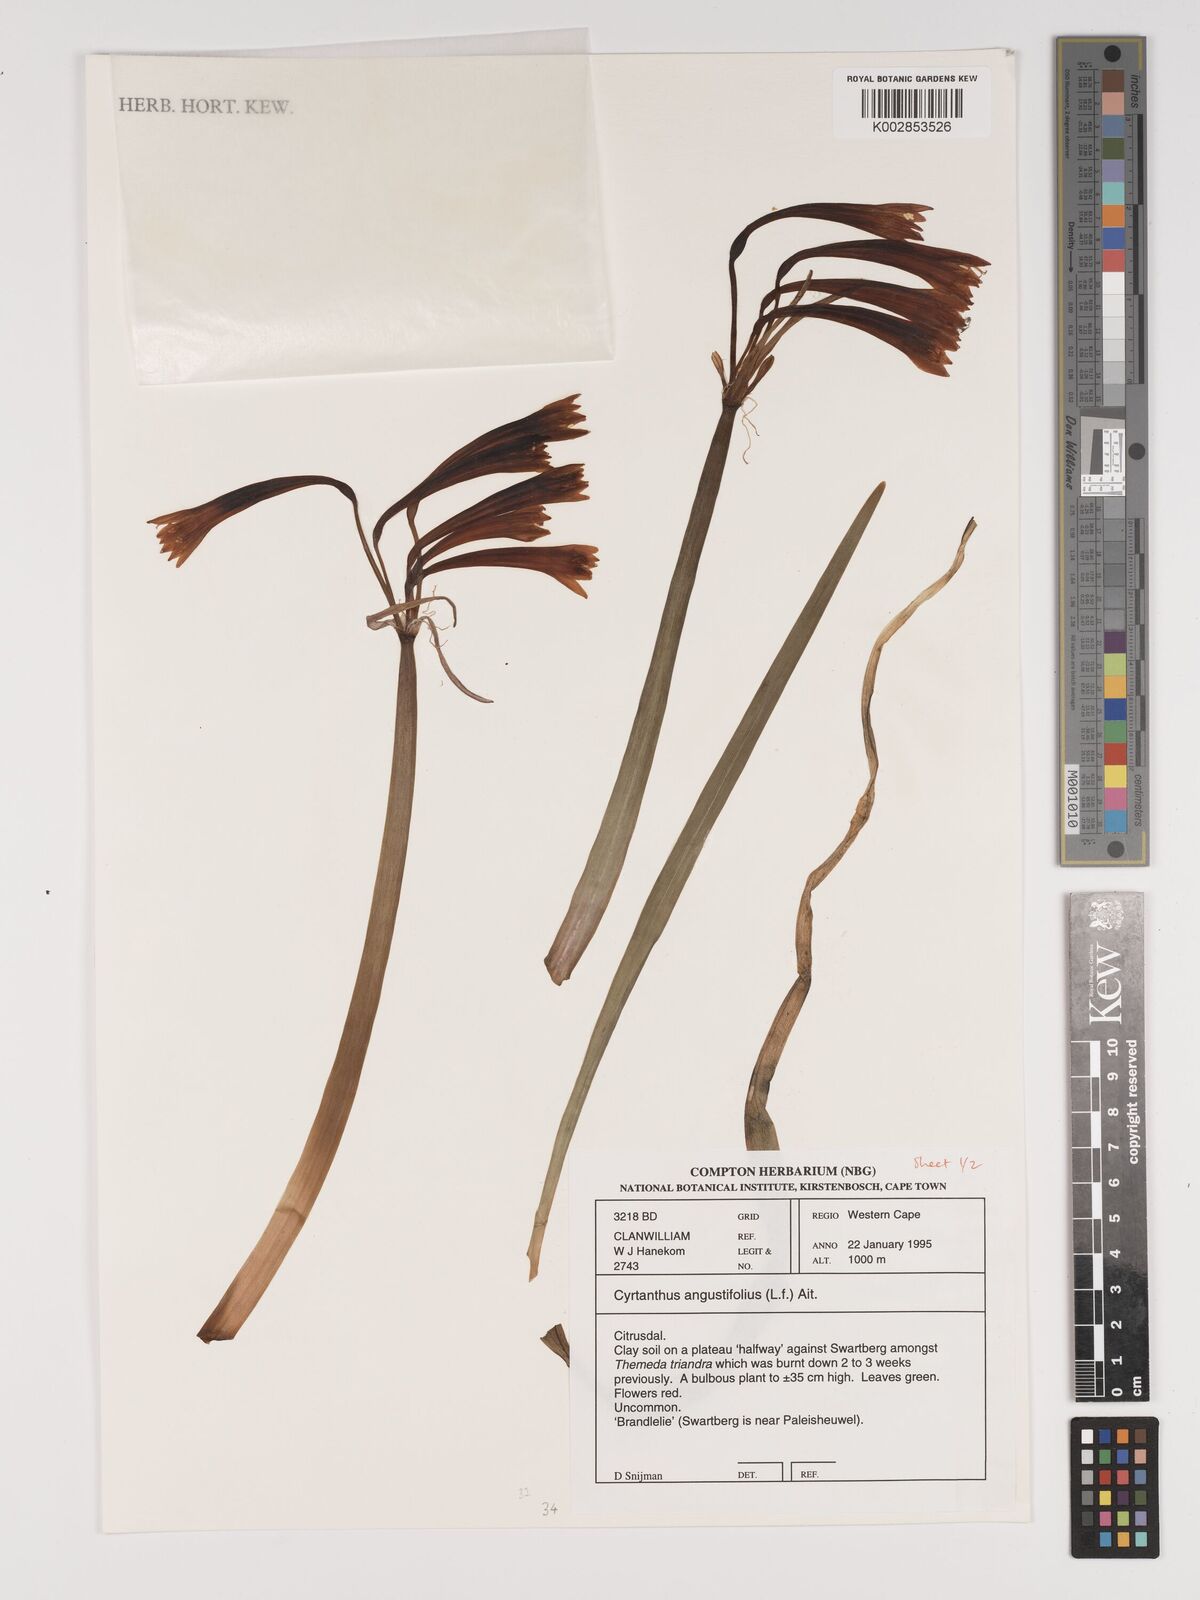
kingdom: Plantae
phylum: Tracheophyta
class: Liliopsida
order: Asparagales
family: Amaryllidaceae
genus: Cyrtanthus
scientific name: Cyrtanthus angustifolius
